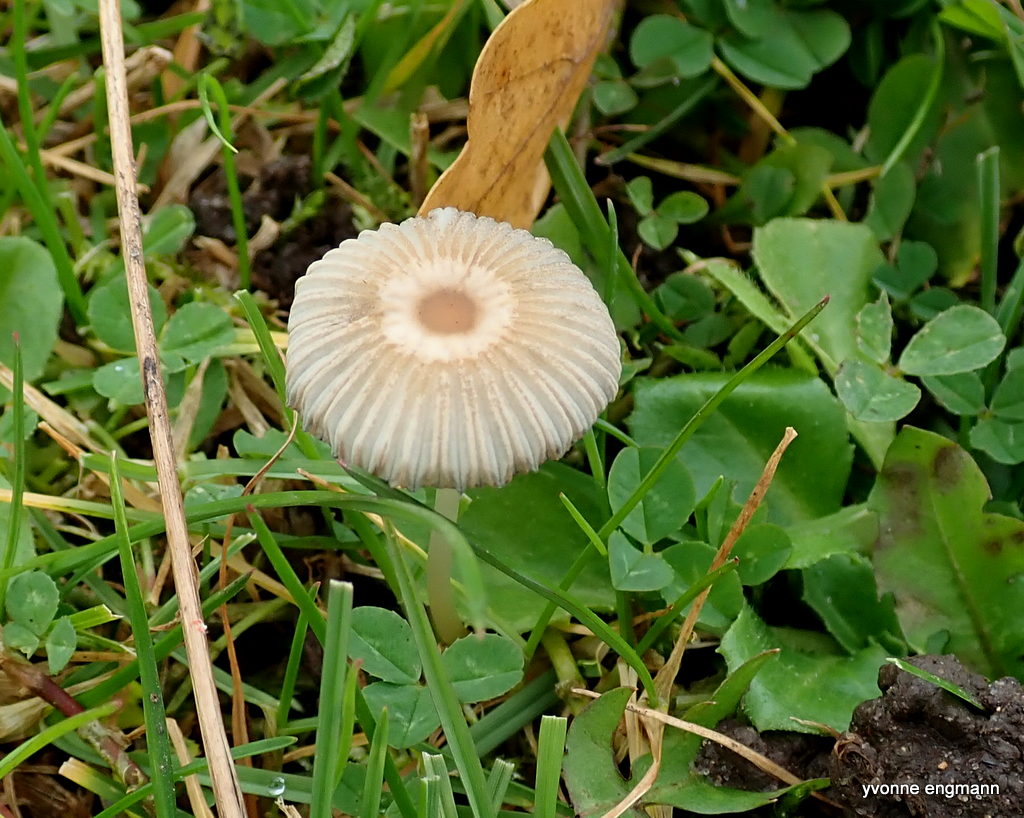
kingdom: Fungi
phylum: Basidiomycota
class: Agaricomycetes
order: Agaricales
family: Psathyrellaceae
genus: Parasola
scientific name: Parasola
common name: hjulhat
